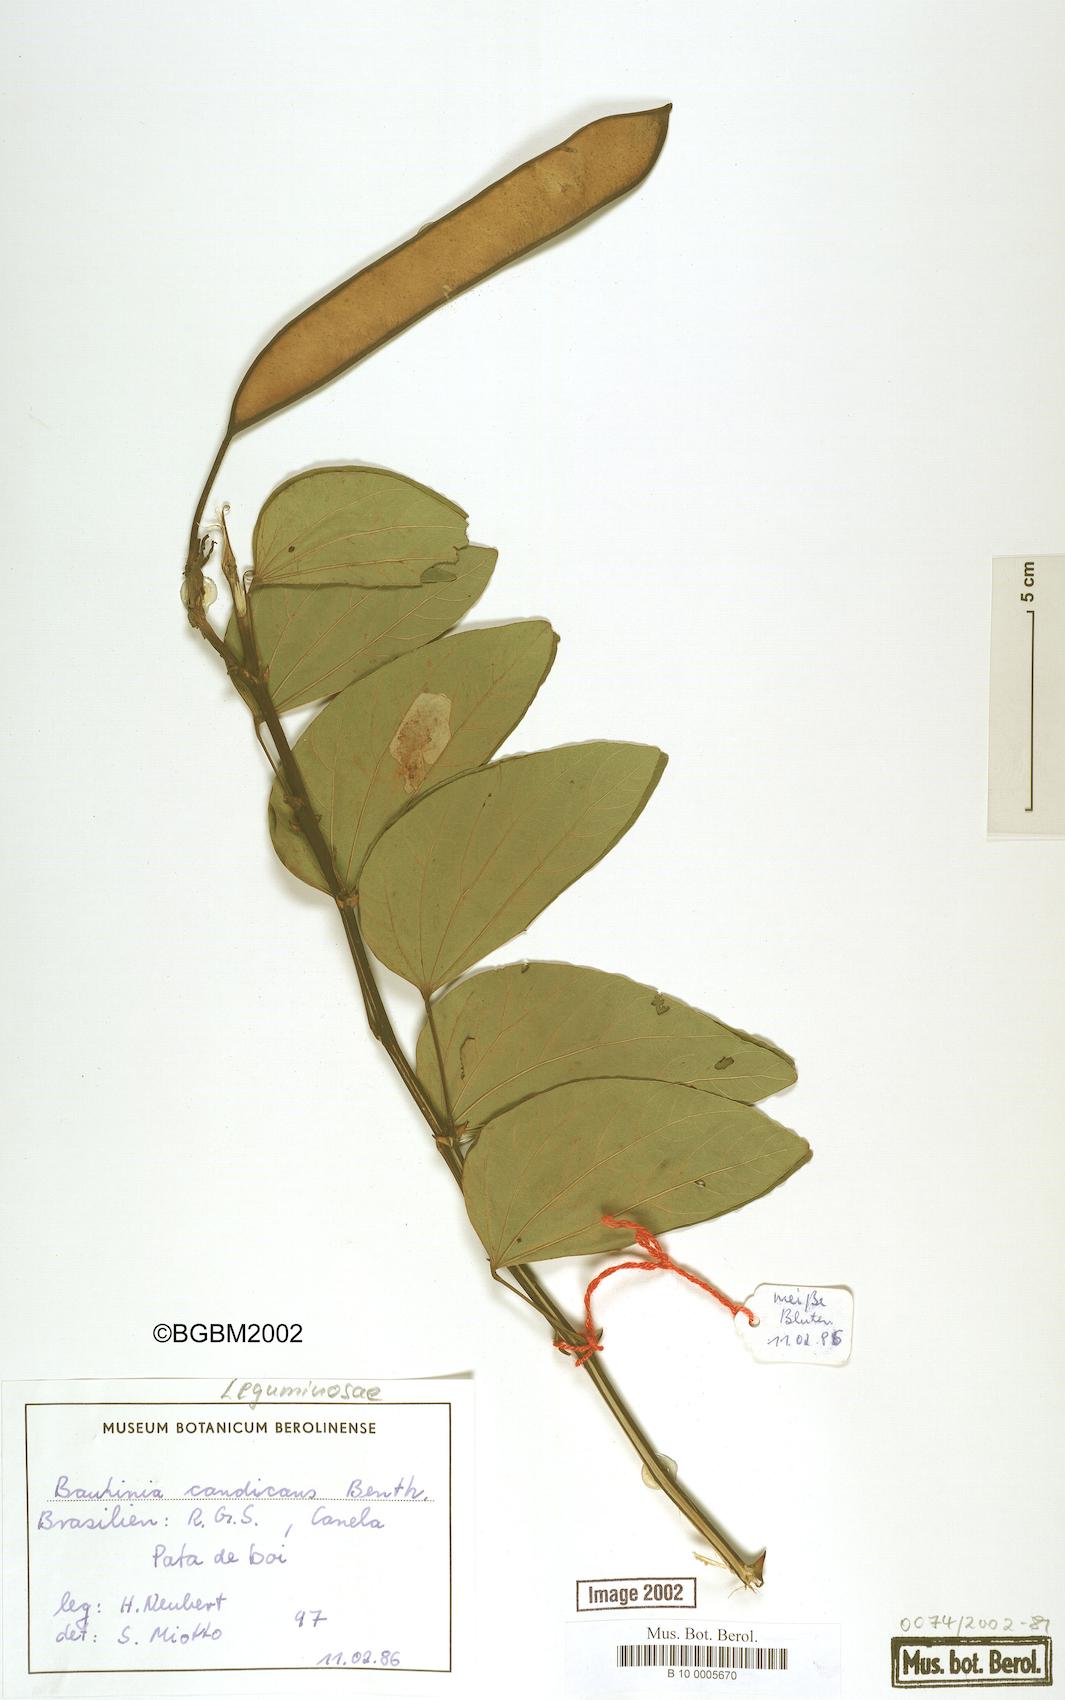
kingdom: Plantae
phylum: Tracheophyta
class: Magnoliopsida
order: Fabales
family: Fabaceae
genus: Bauhinia
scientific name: Bauhinia forficata
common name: Orchid tree
